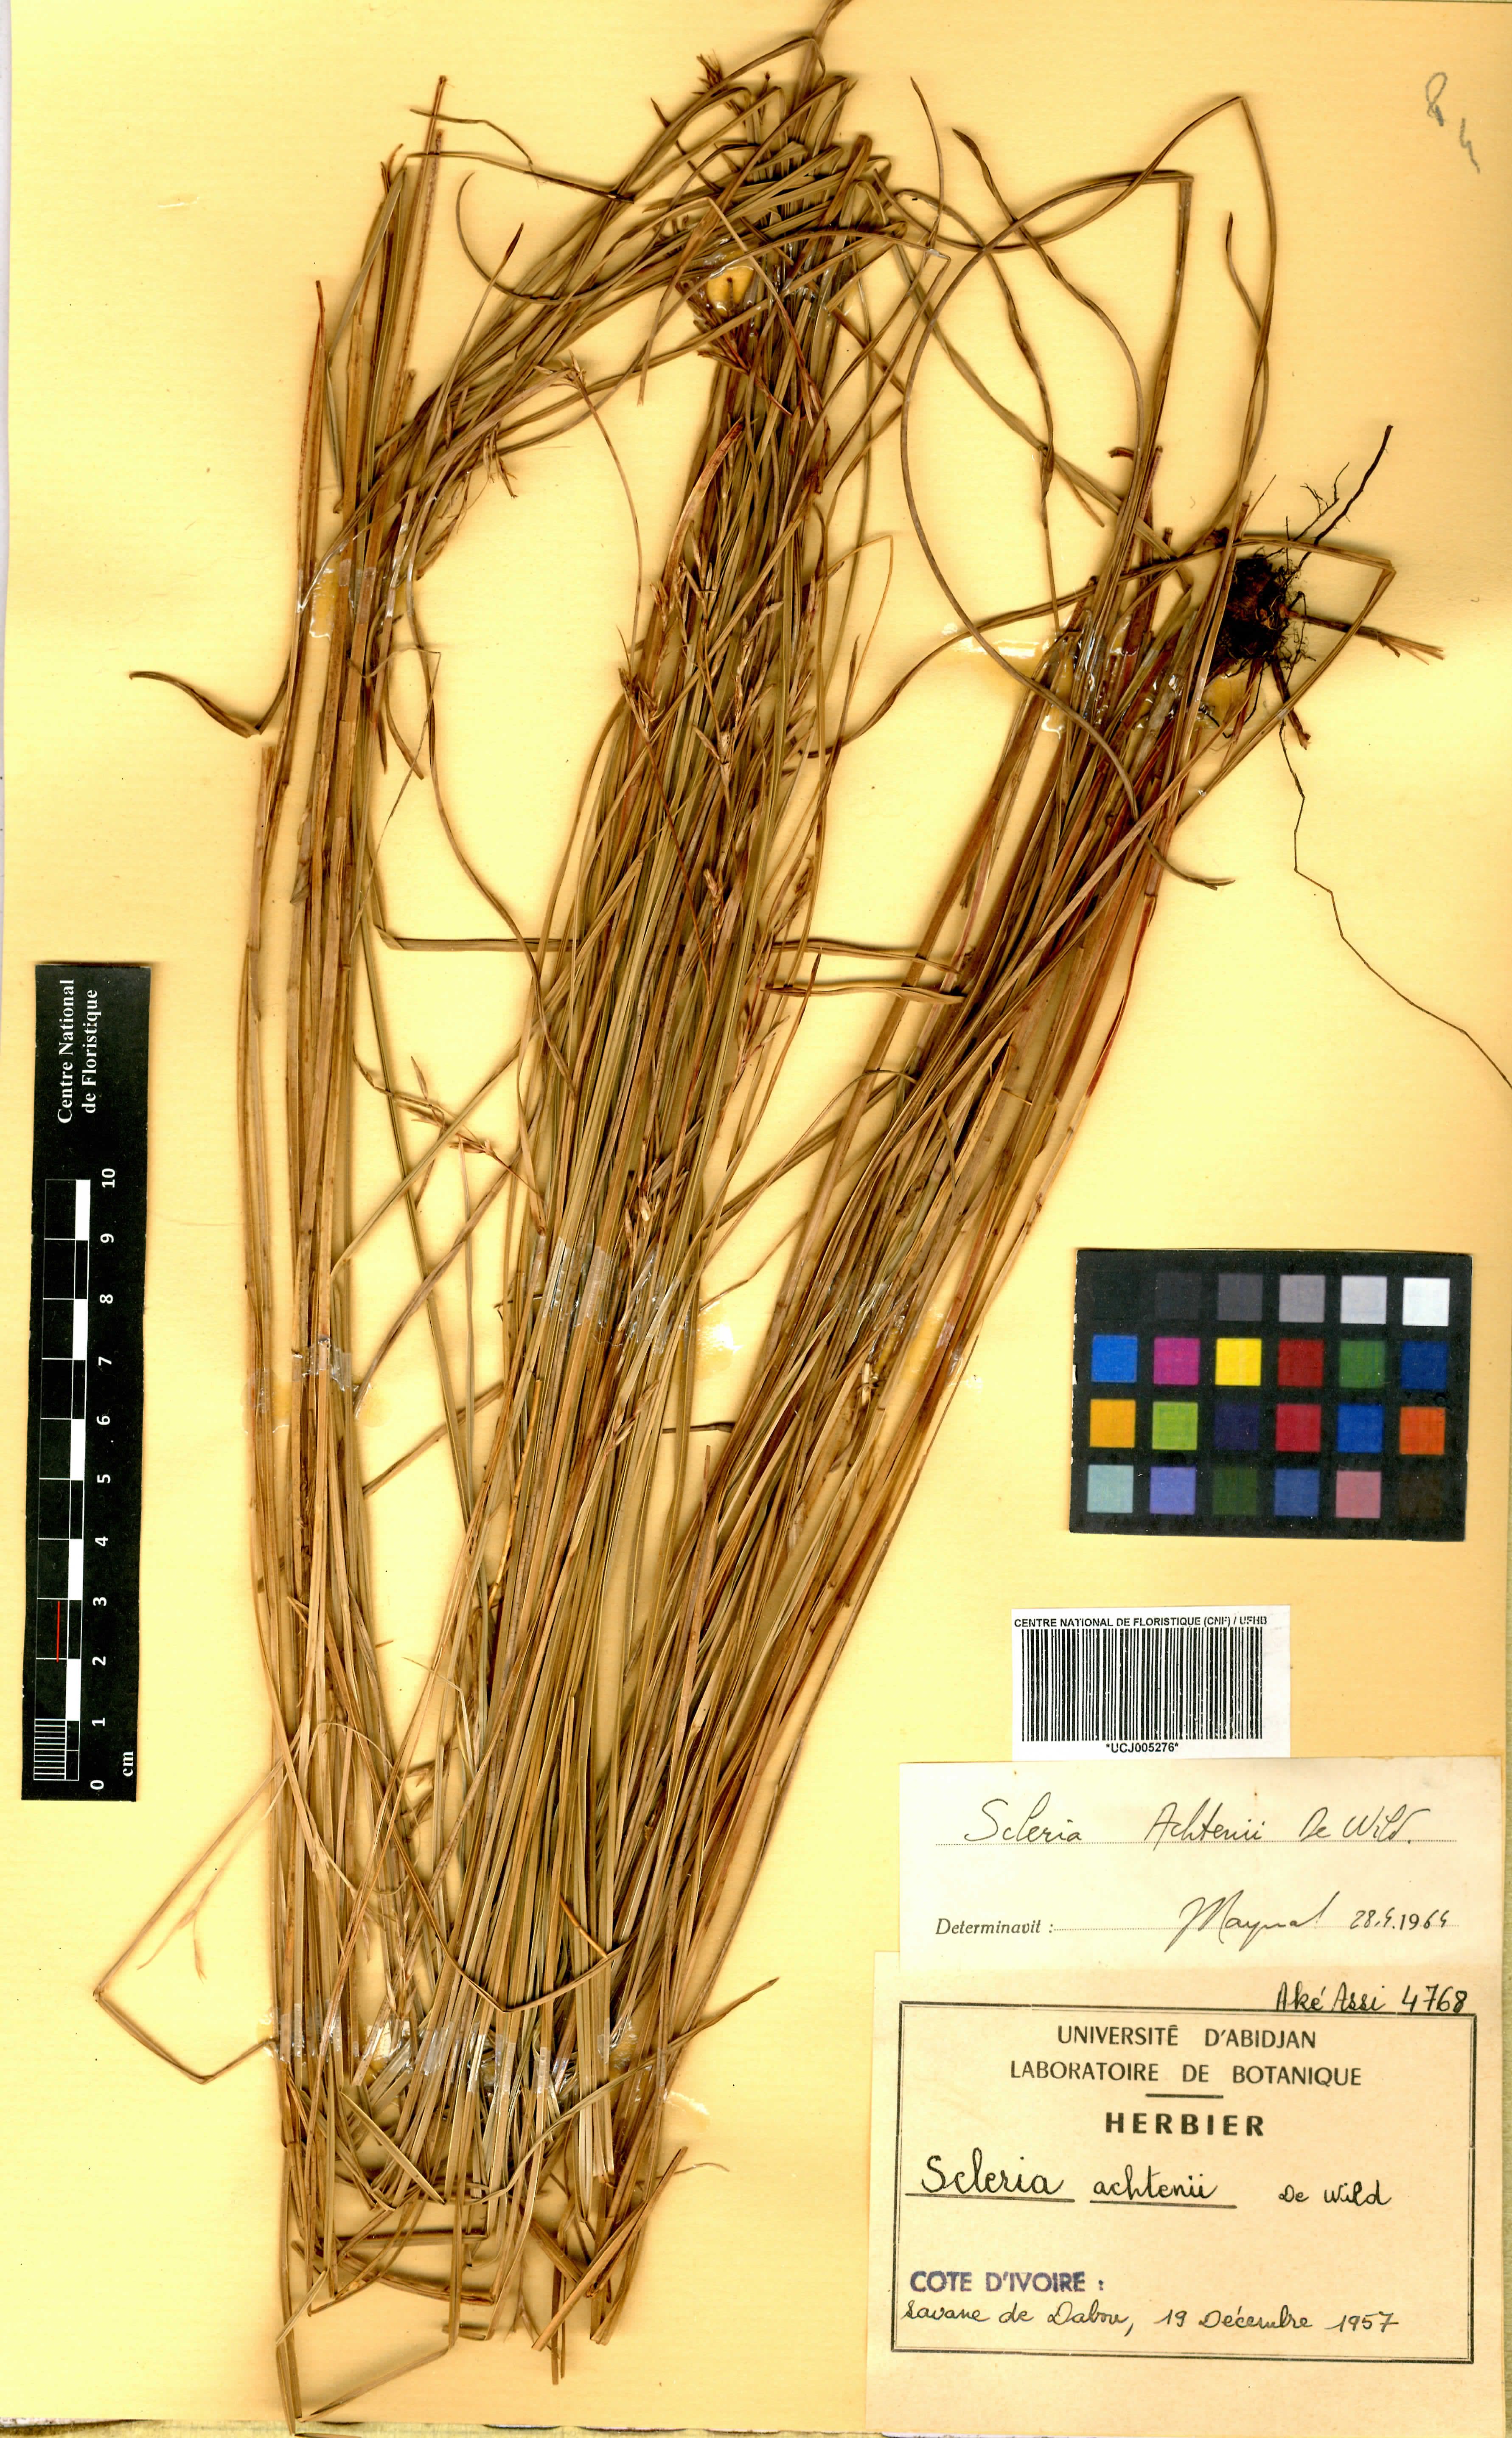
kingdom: Plantae
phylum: Tracheophyta
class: Liliopsida
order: Poales
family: Cyperaceae
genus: Scleria
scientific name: Scleria achtenii
